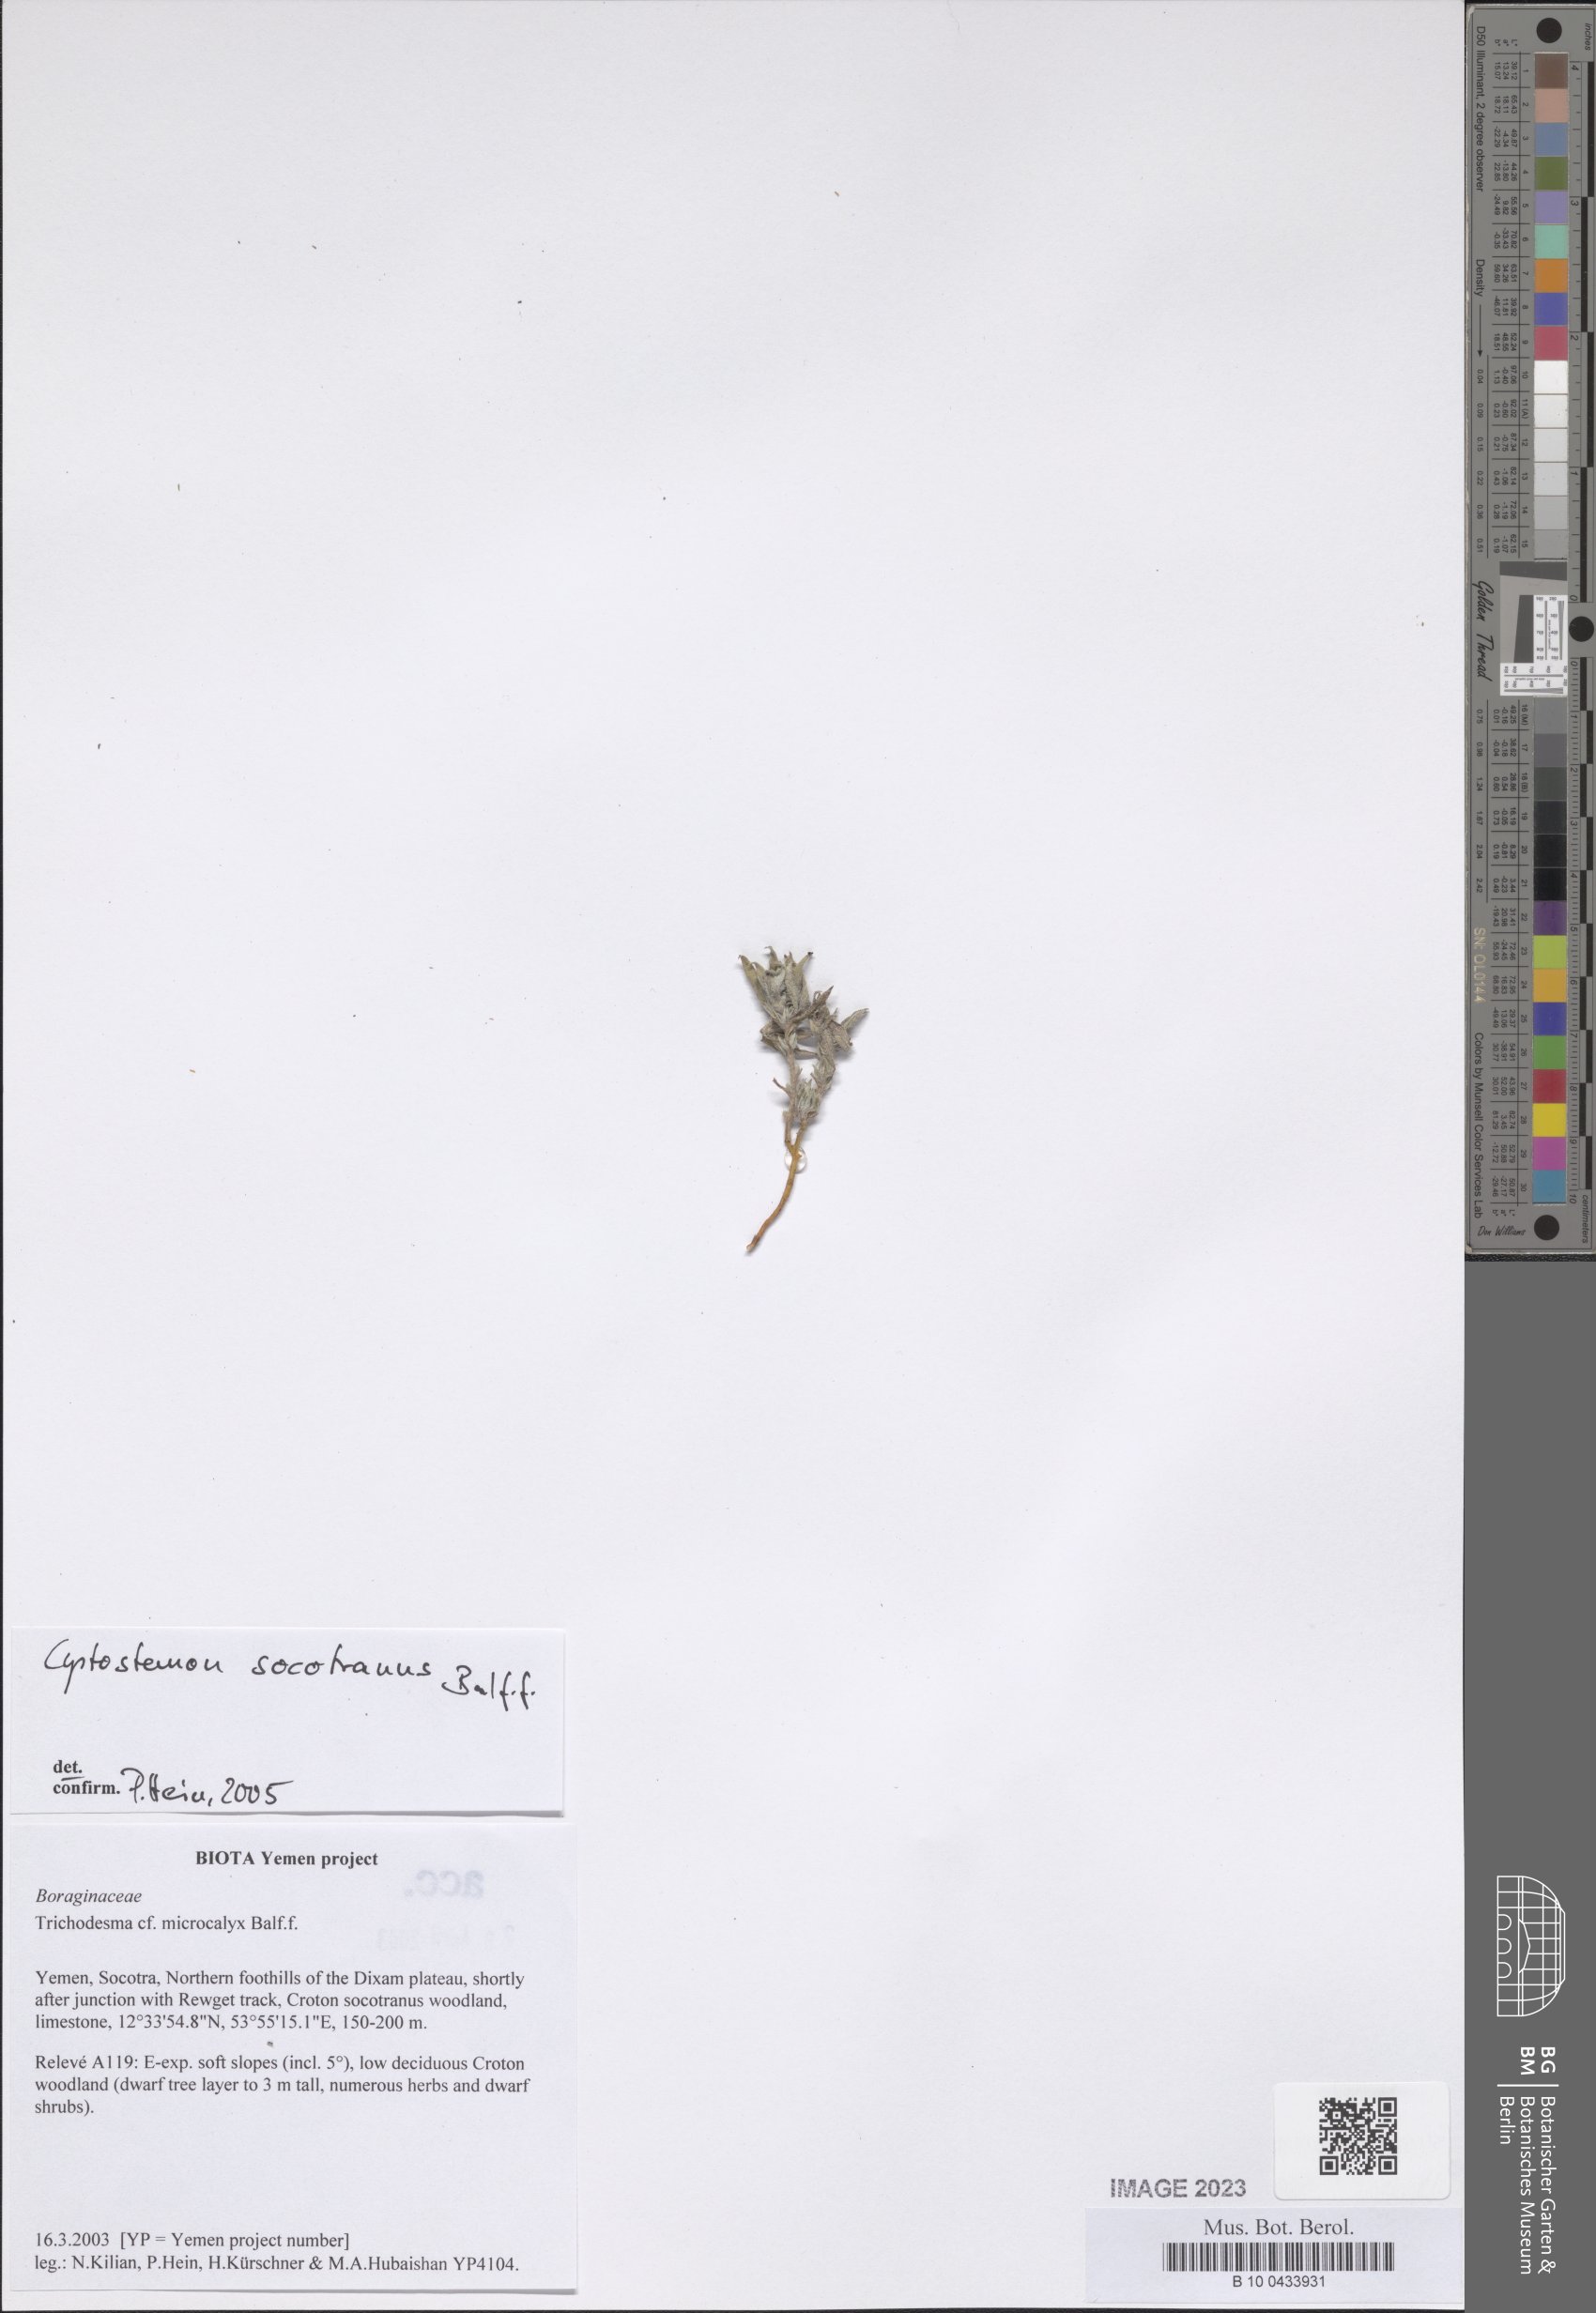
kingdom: Plantae
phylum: Tracheophyta
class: Magnoliopsida
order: Boraginales
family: Boraginaceae
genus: Cystostemon
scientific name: Cystostemon socotranus
